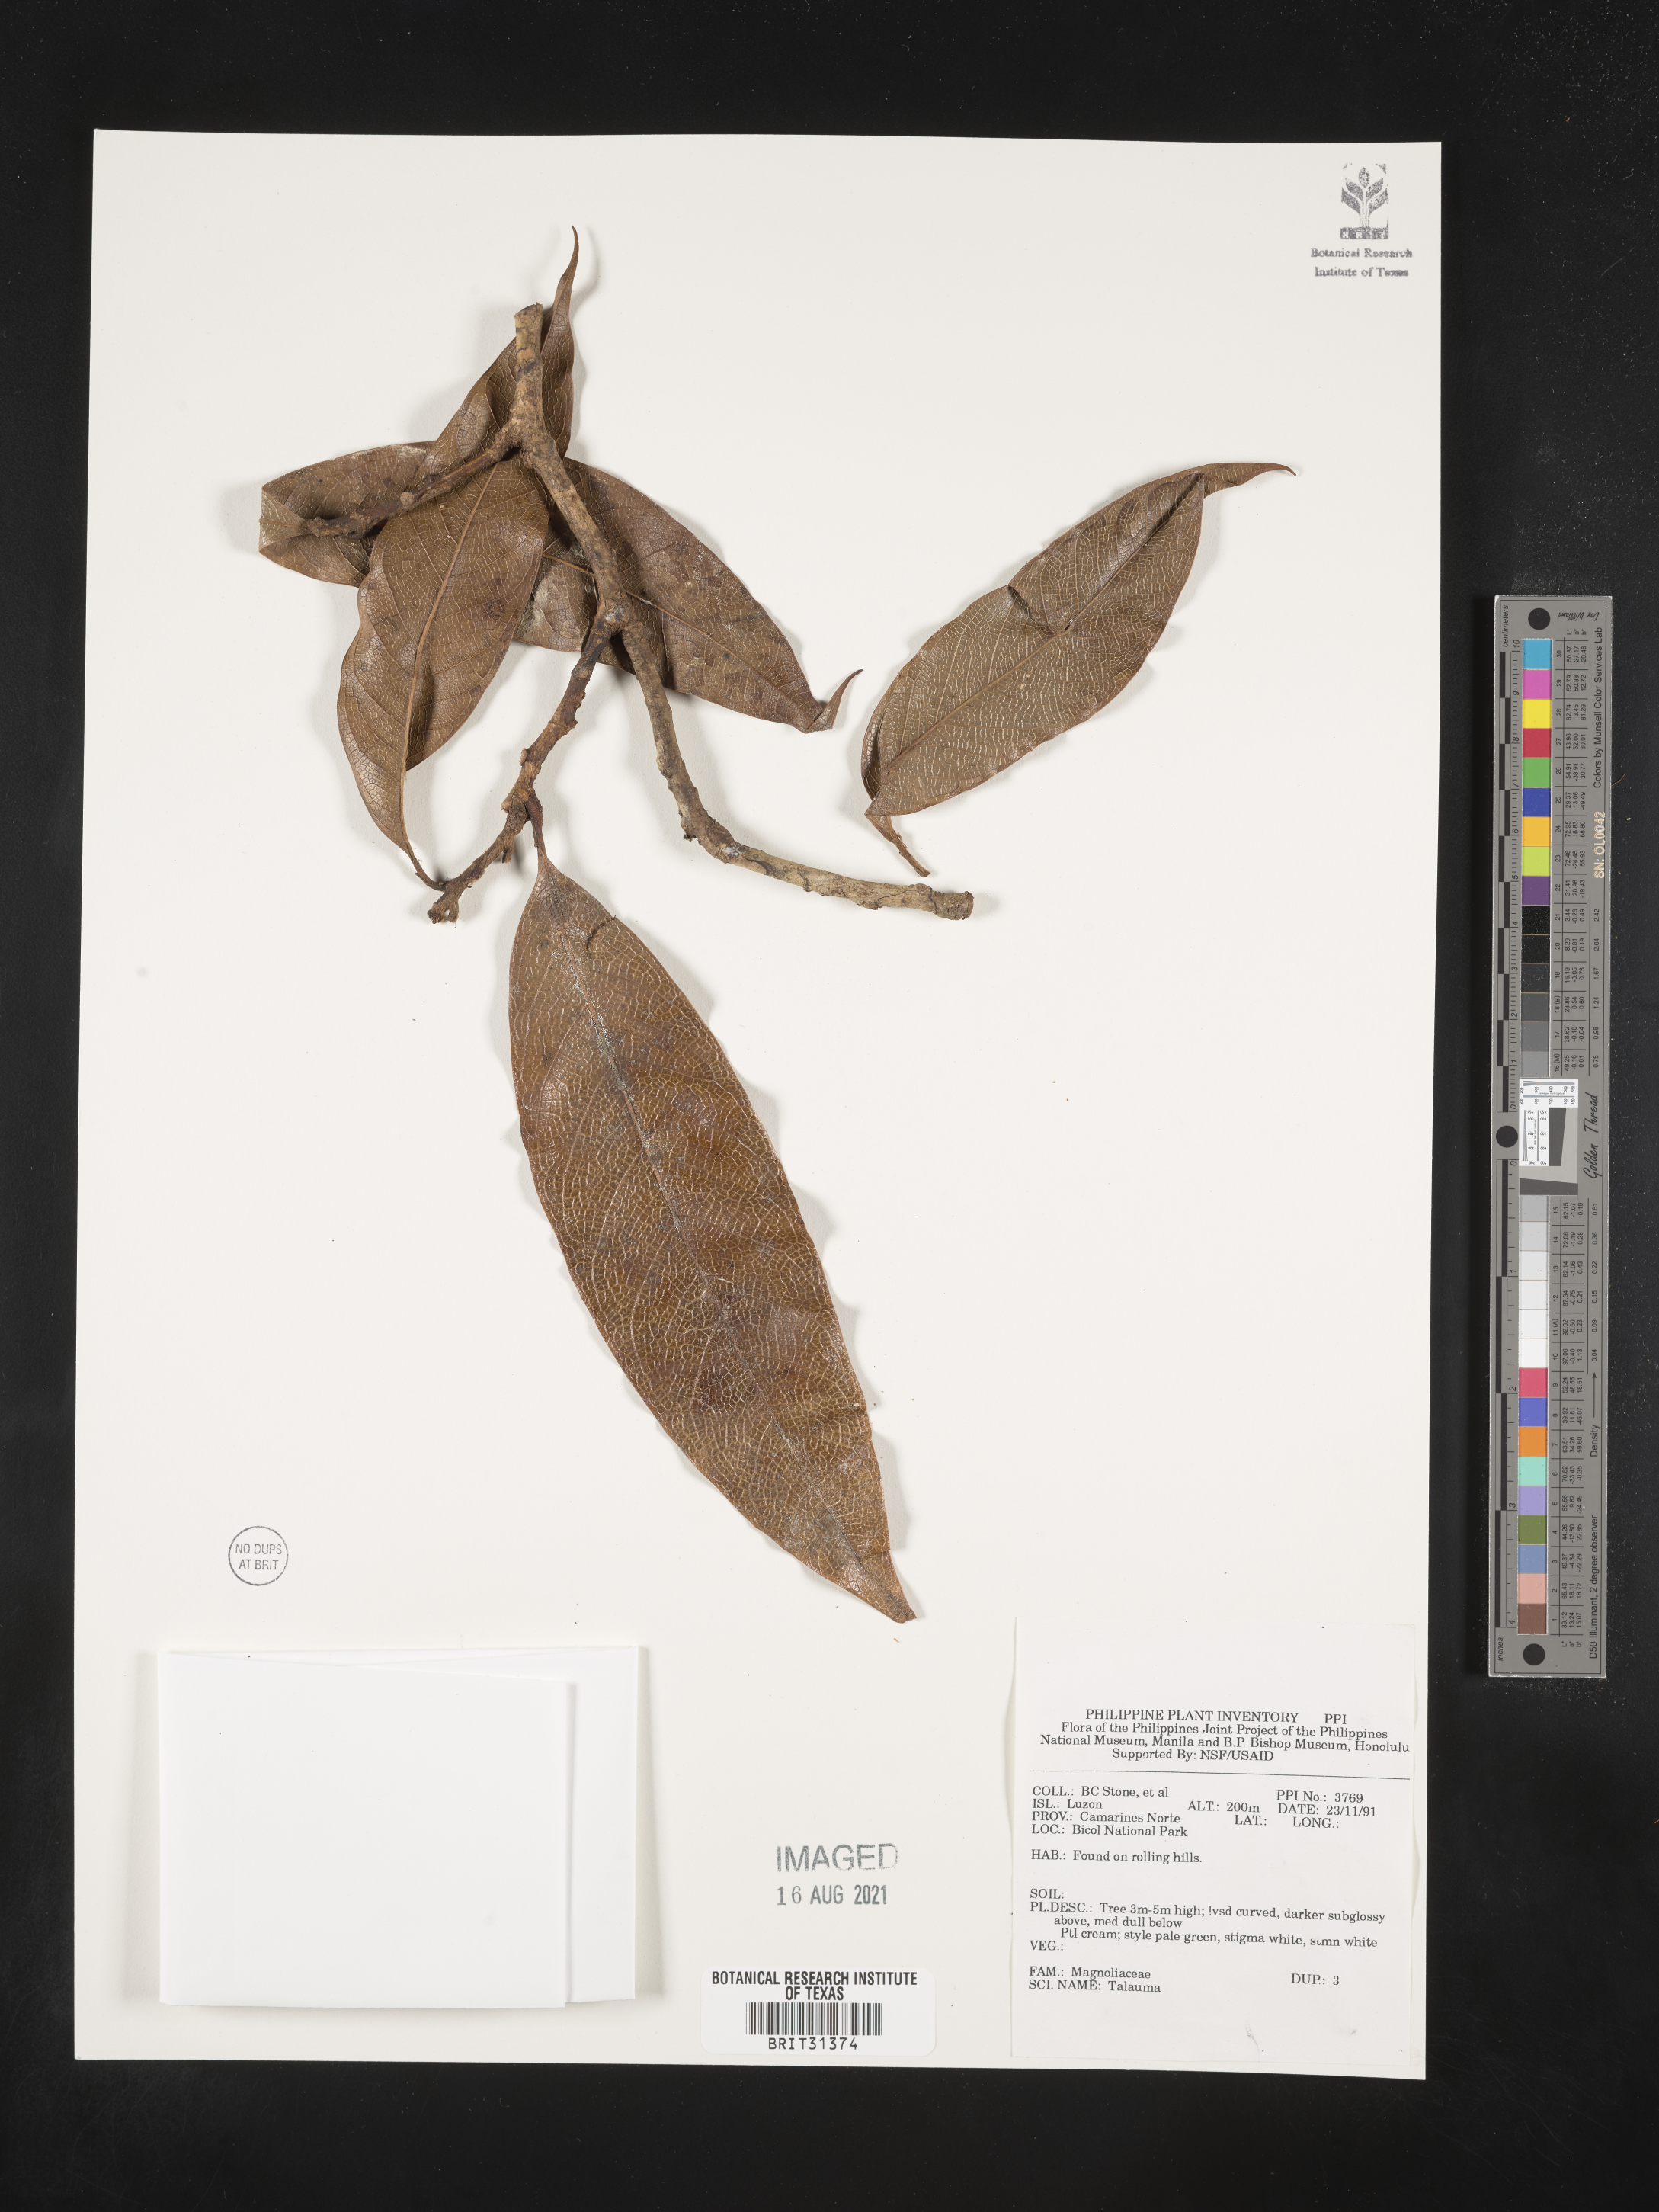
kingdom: Plantae
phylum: Tracheophyta
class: Magnoliopsida
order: Magnoliales
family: Magnoliaceae
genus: Magnolia
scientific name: Magnolia Talauma spec
